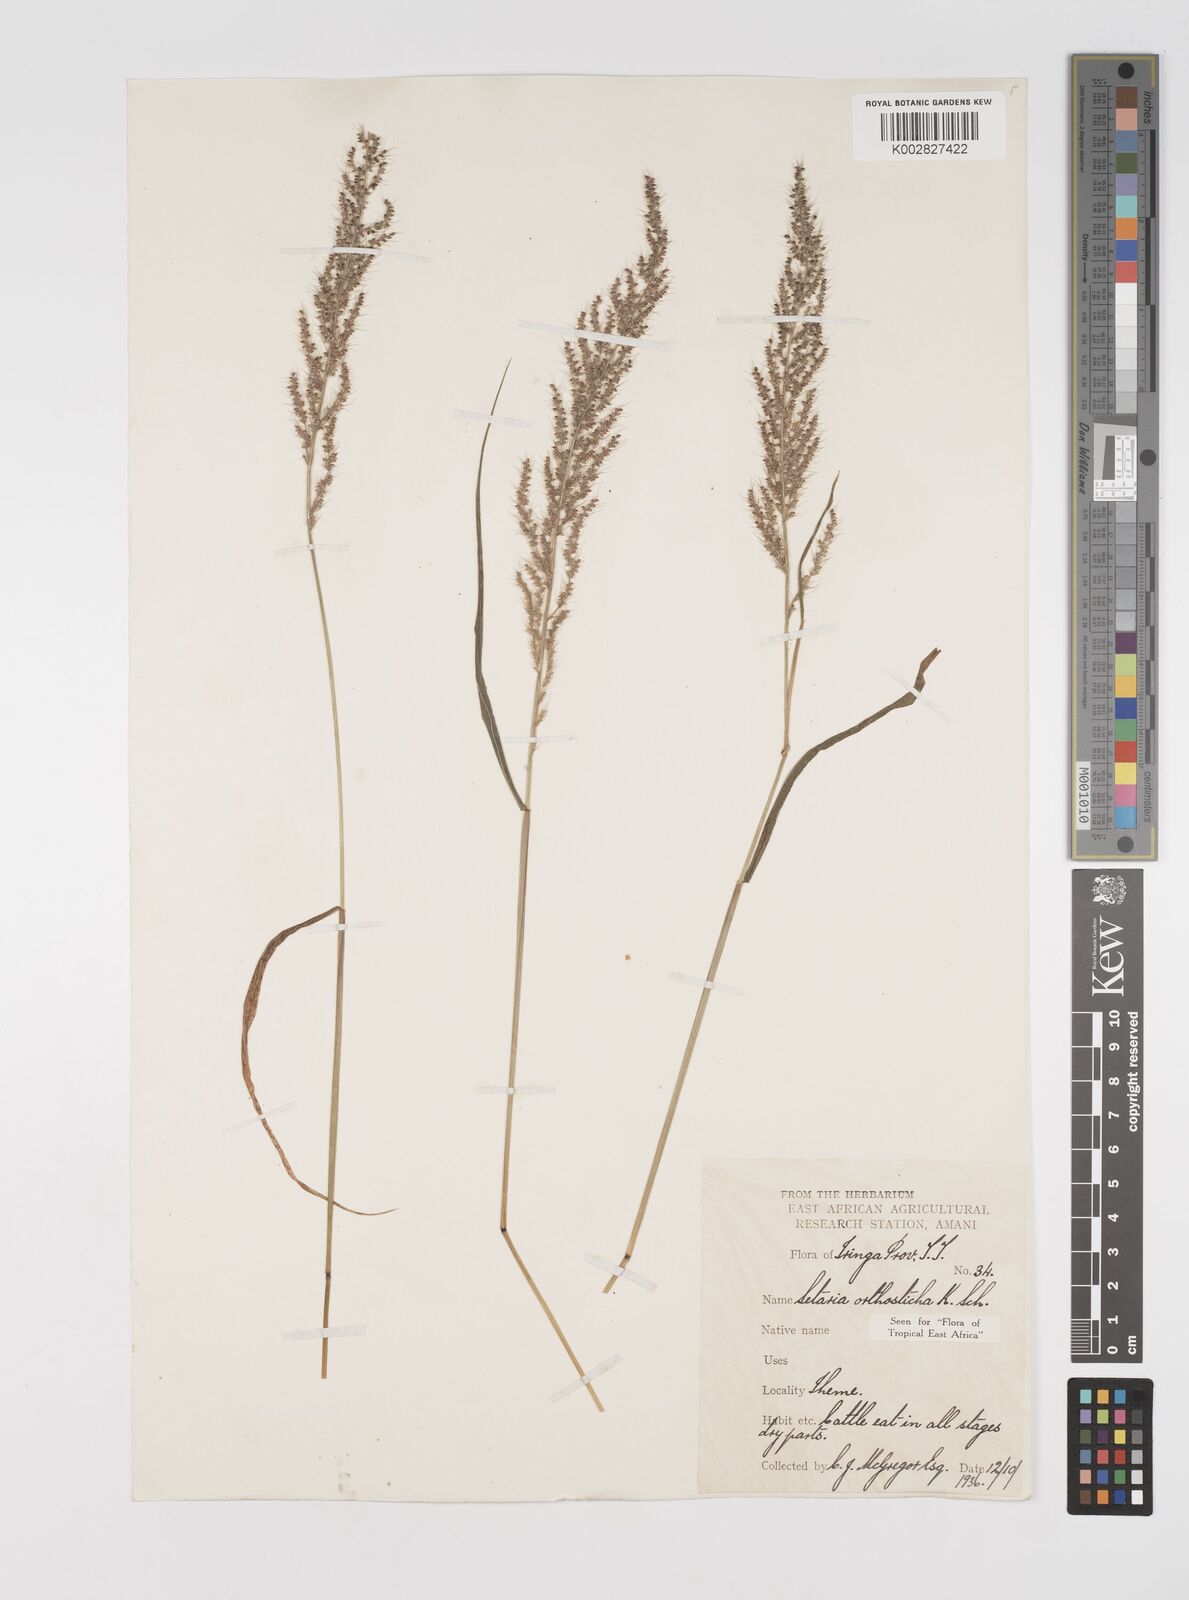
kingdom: Plantae
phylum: Tracheophyta
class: Liliopsida
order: Poales
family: Poaceae
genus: Setaria
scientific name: Setaria orthosticha
